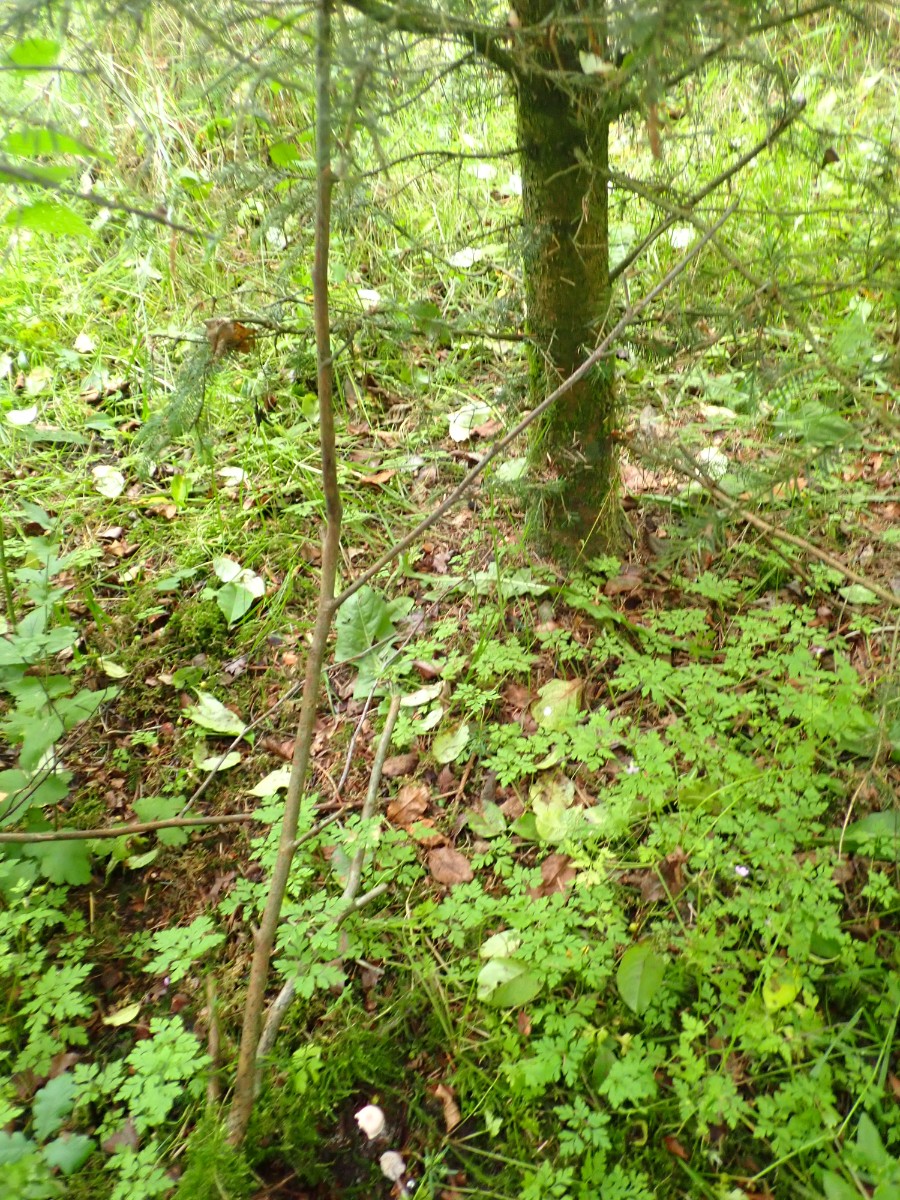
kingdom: Fungi
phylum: Basidiomycota
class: Agaricomycetes
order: Agaricales
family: Mycenaceae
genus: Mycena
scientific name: Mycena rosea
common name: rosa huesvamp
